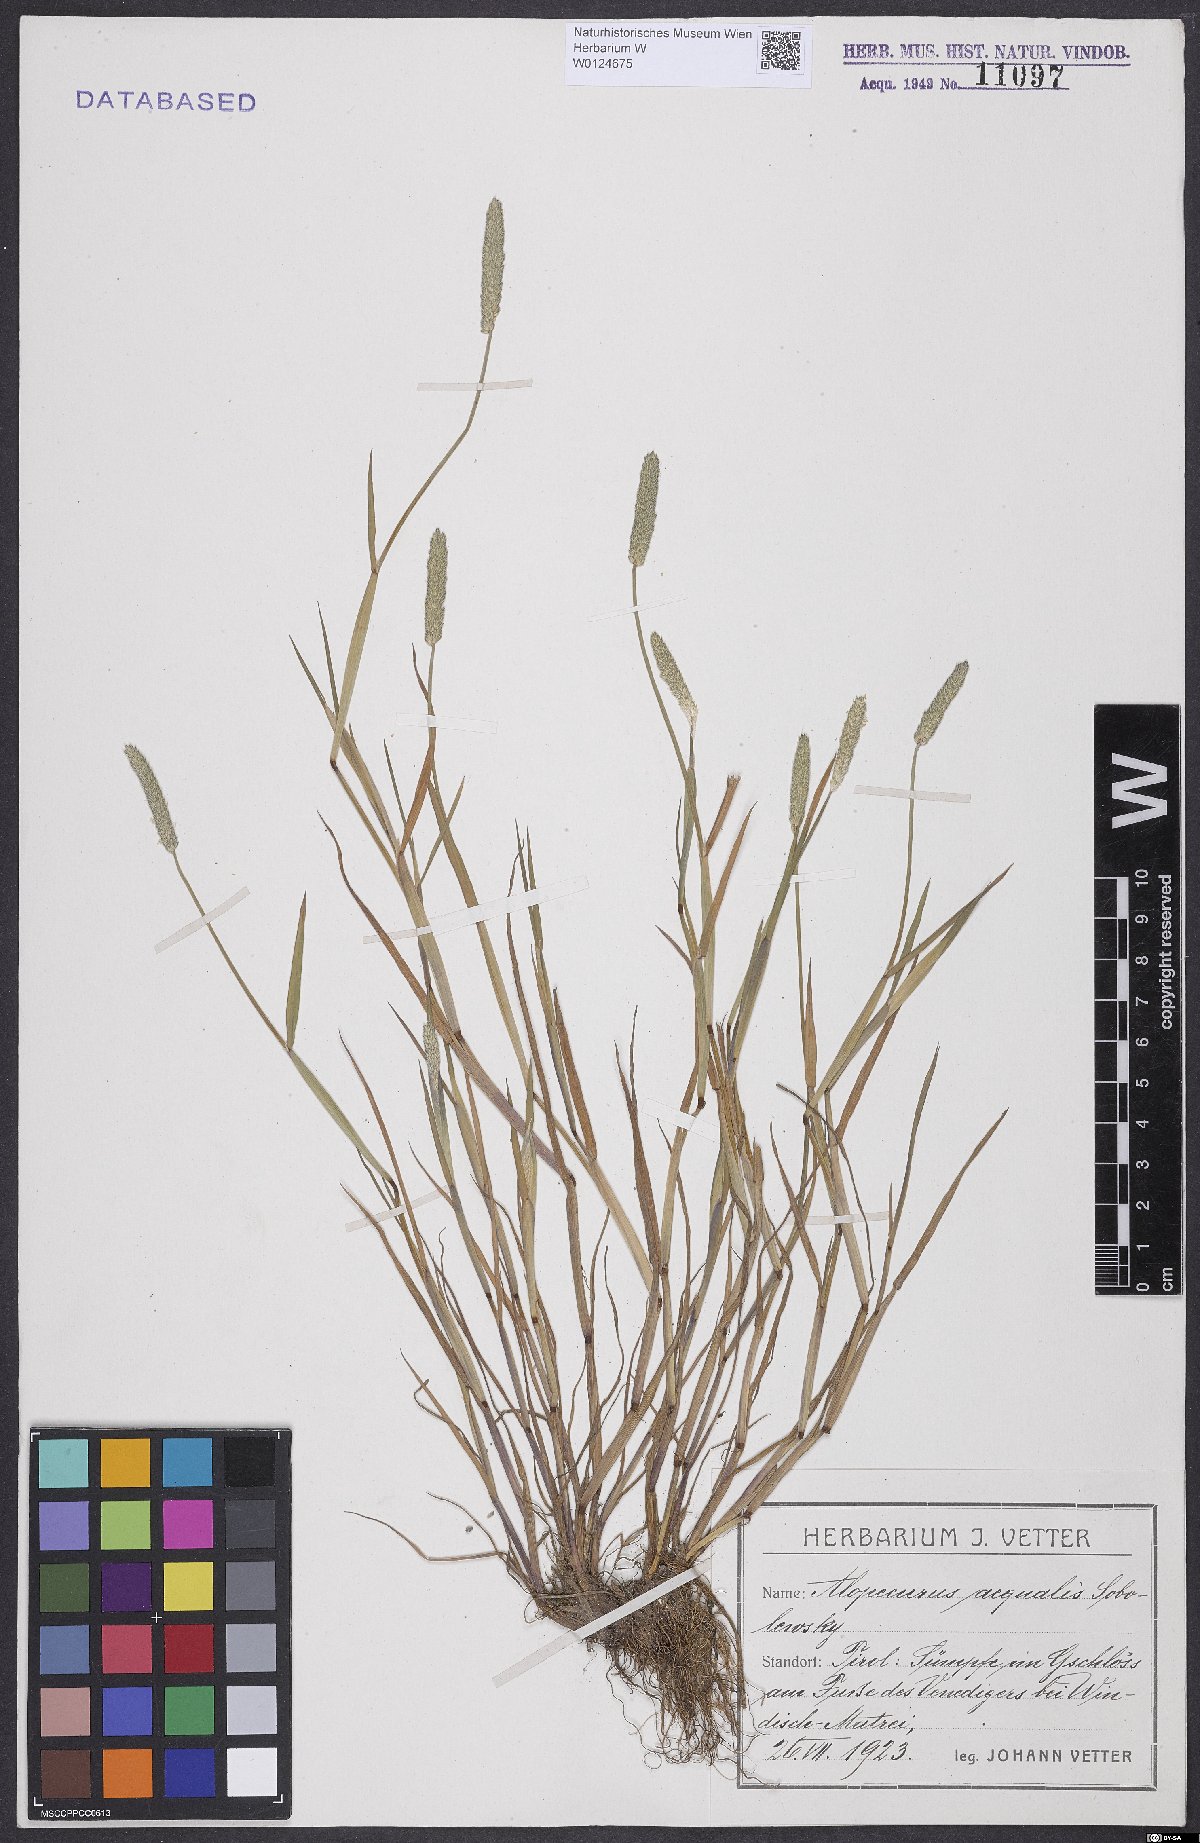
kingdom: Plantae
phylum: Tracheophyta
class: Liliopsida
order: Poales
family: Poaceae
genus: Alopecurus
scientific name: Alopecurus aequalis
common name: Orange foxtail
